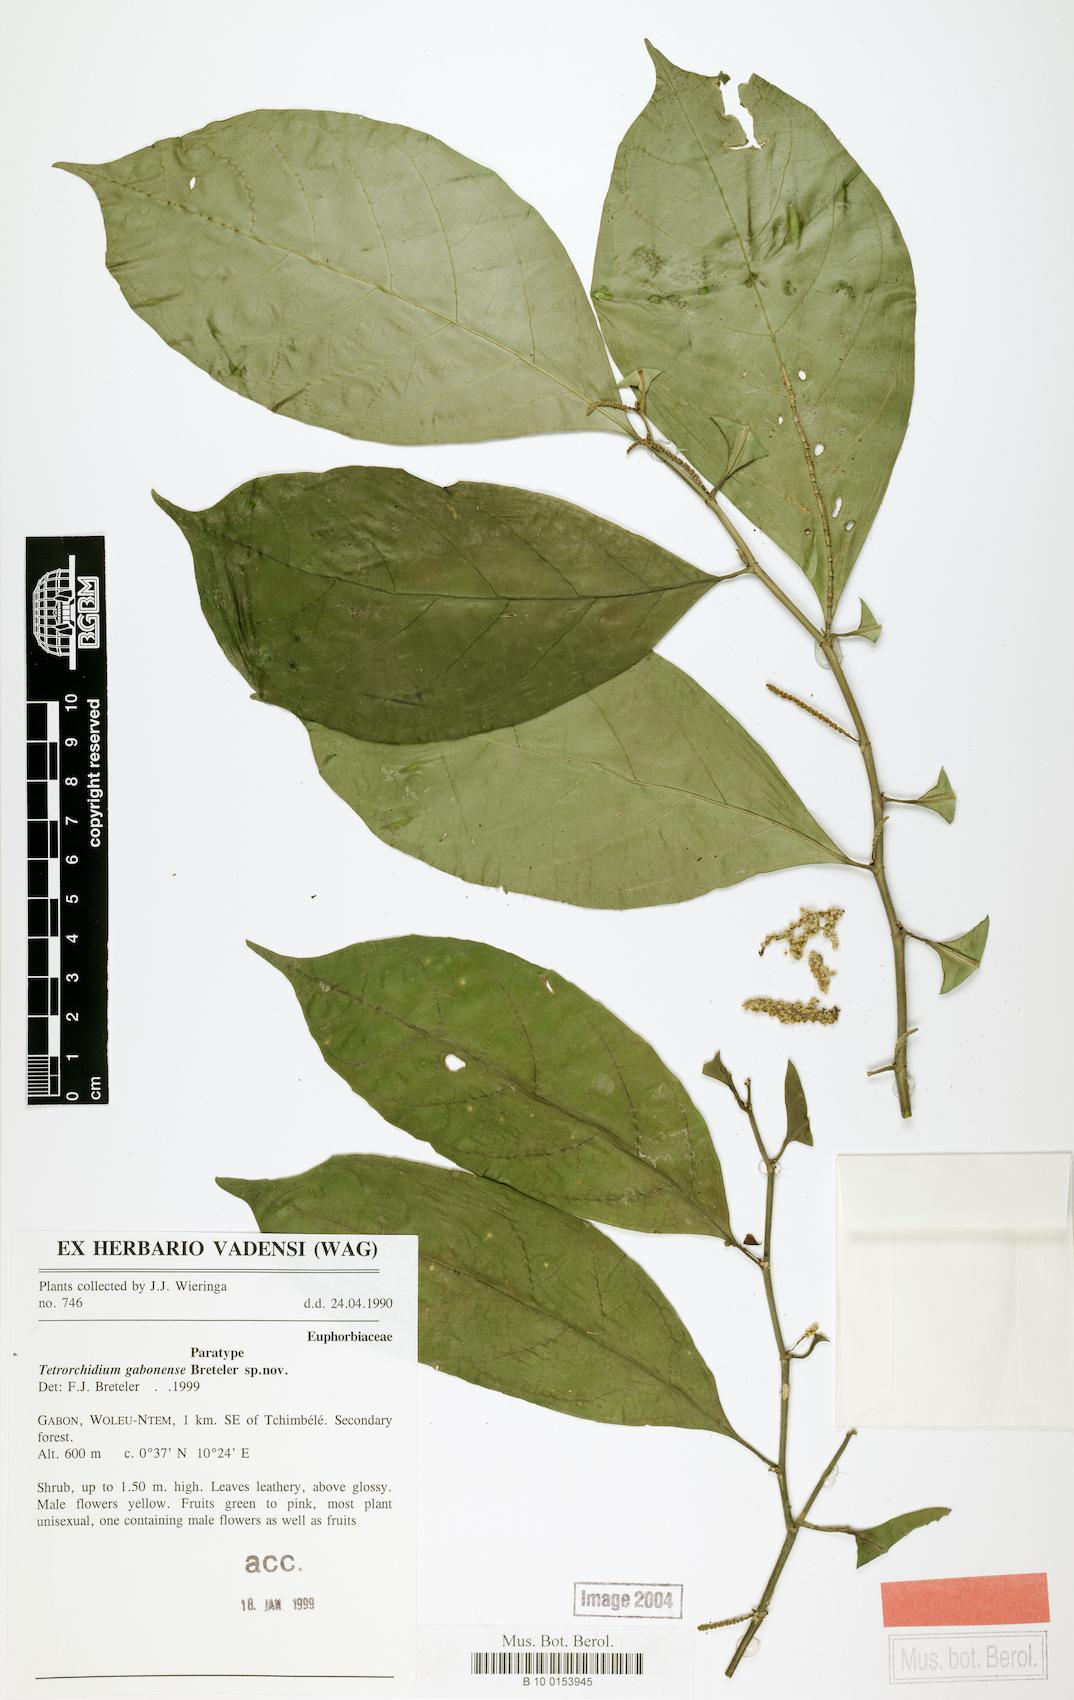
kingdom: Plantae
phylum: Tracheophyta
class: Magnoliopsida
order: Malpighiales
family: Euphorbiaceae
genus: Tetrorchidium
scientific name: Tetrorchidium gabonense
